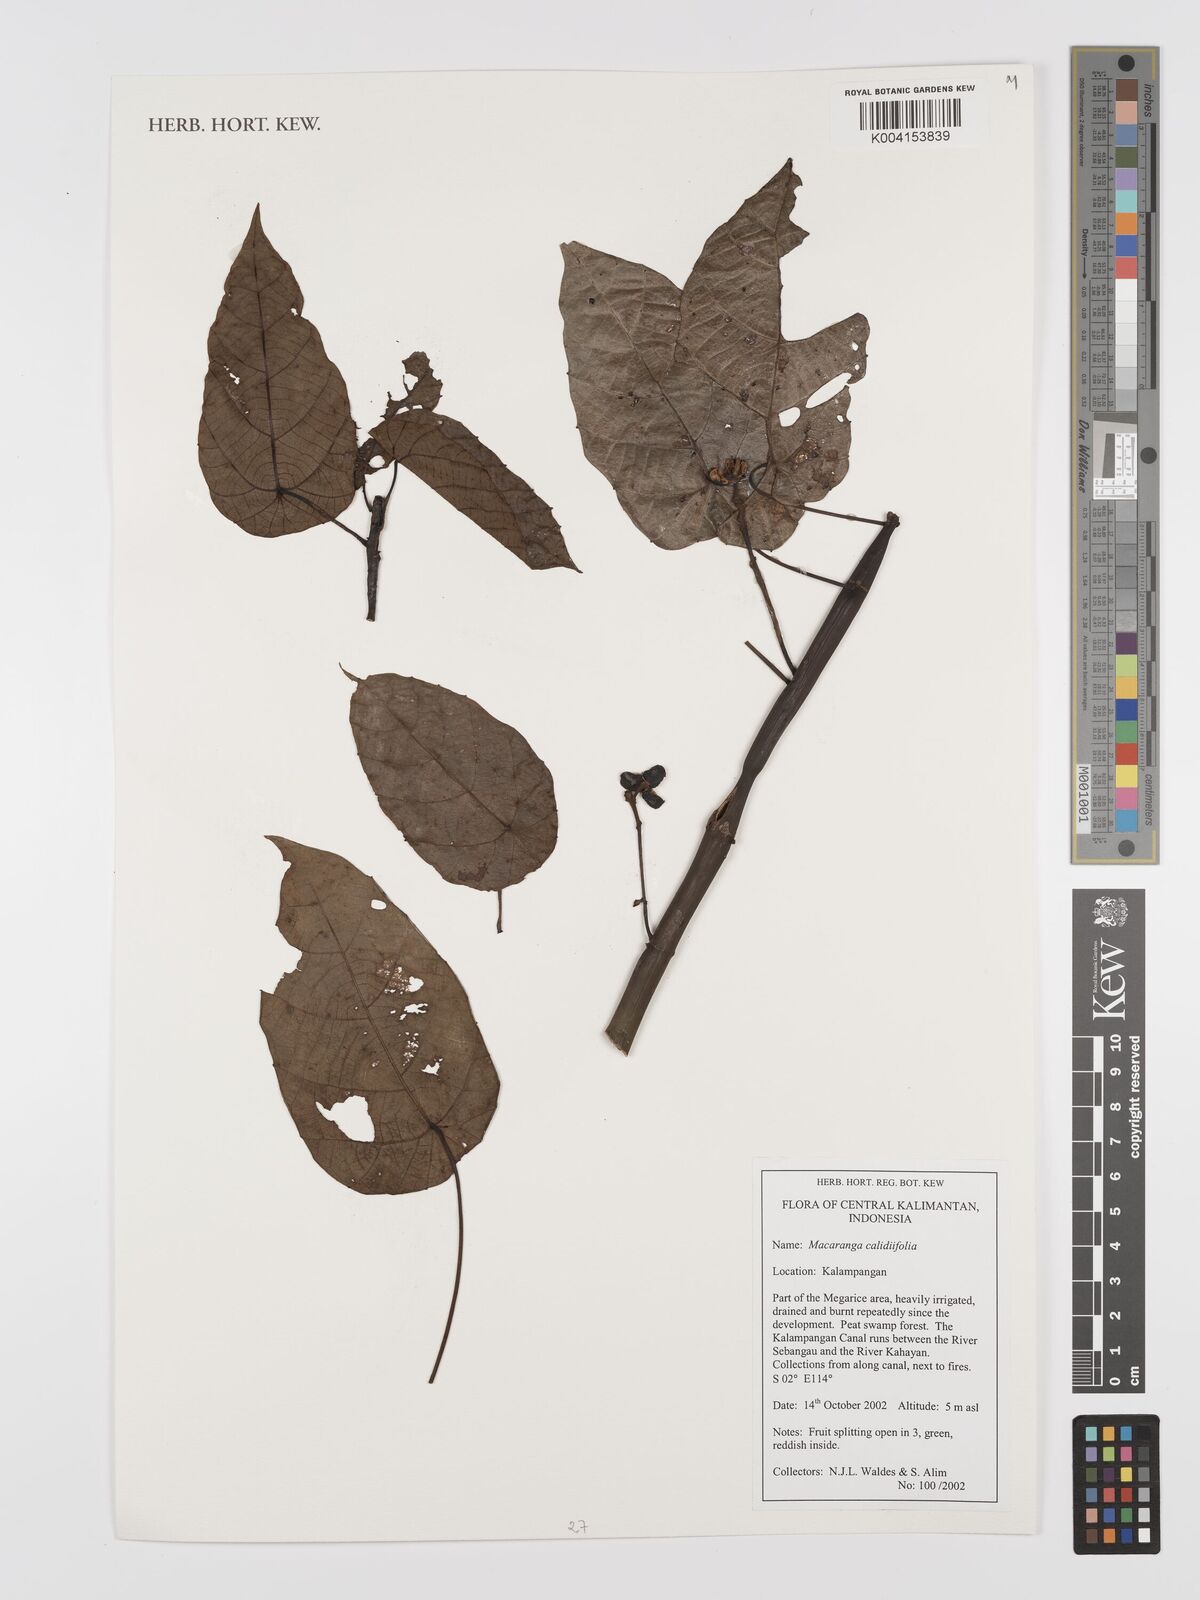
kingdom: Plantae
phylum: Tracheophyta
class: Magnoliopsida
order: Malpighiales
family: Euphorbiaceae
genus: Macaranga
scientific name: Macaranga caladiifolia
